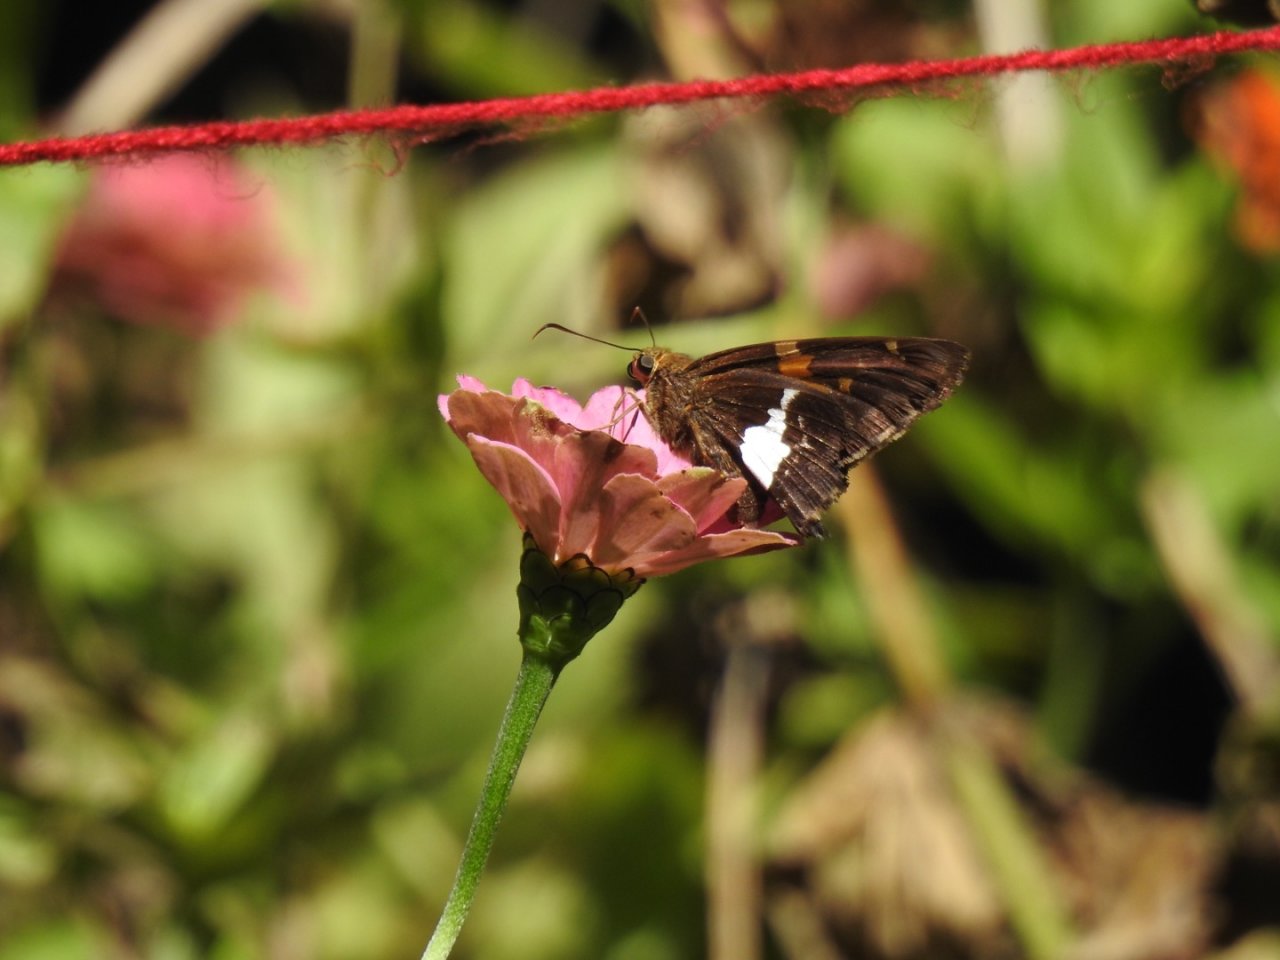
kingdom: Animalia
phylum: Arthropoda
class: Insecta
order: Lepidoptera
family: Hesperiidae
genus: Epargyreus
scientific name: Epargyreus clarus
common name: Silver-spotted Skipper
